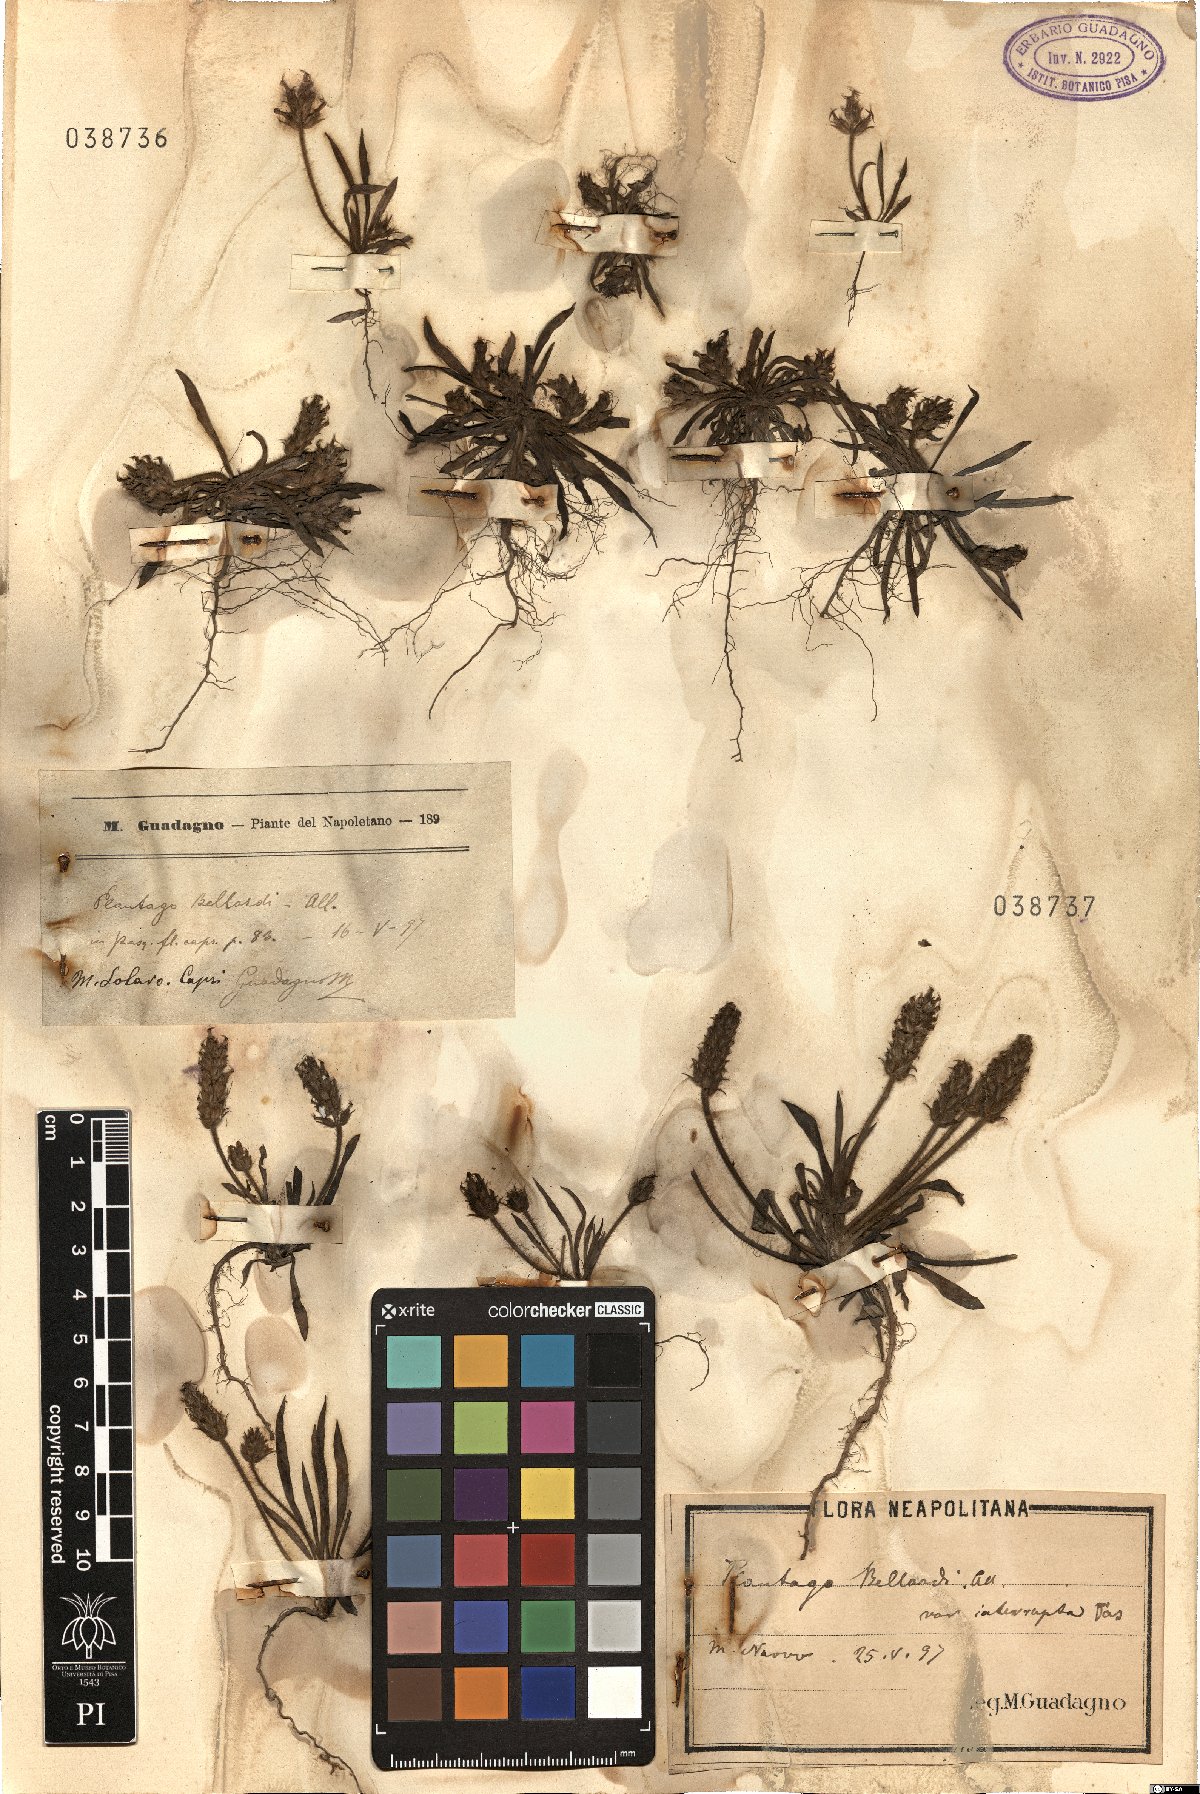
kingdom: Plantae
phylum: Tracheophyta
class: Magnoliopsida
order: Lamiales
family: Plantaginaceae
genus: Plantago
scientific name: Plantago bellardii
